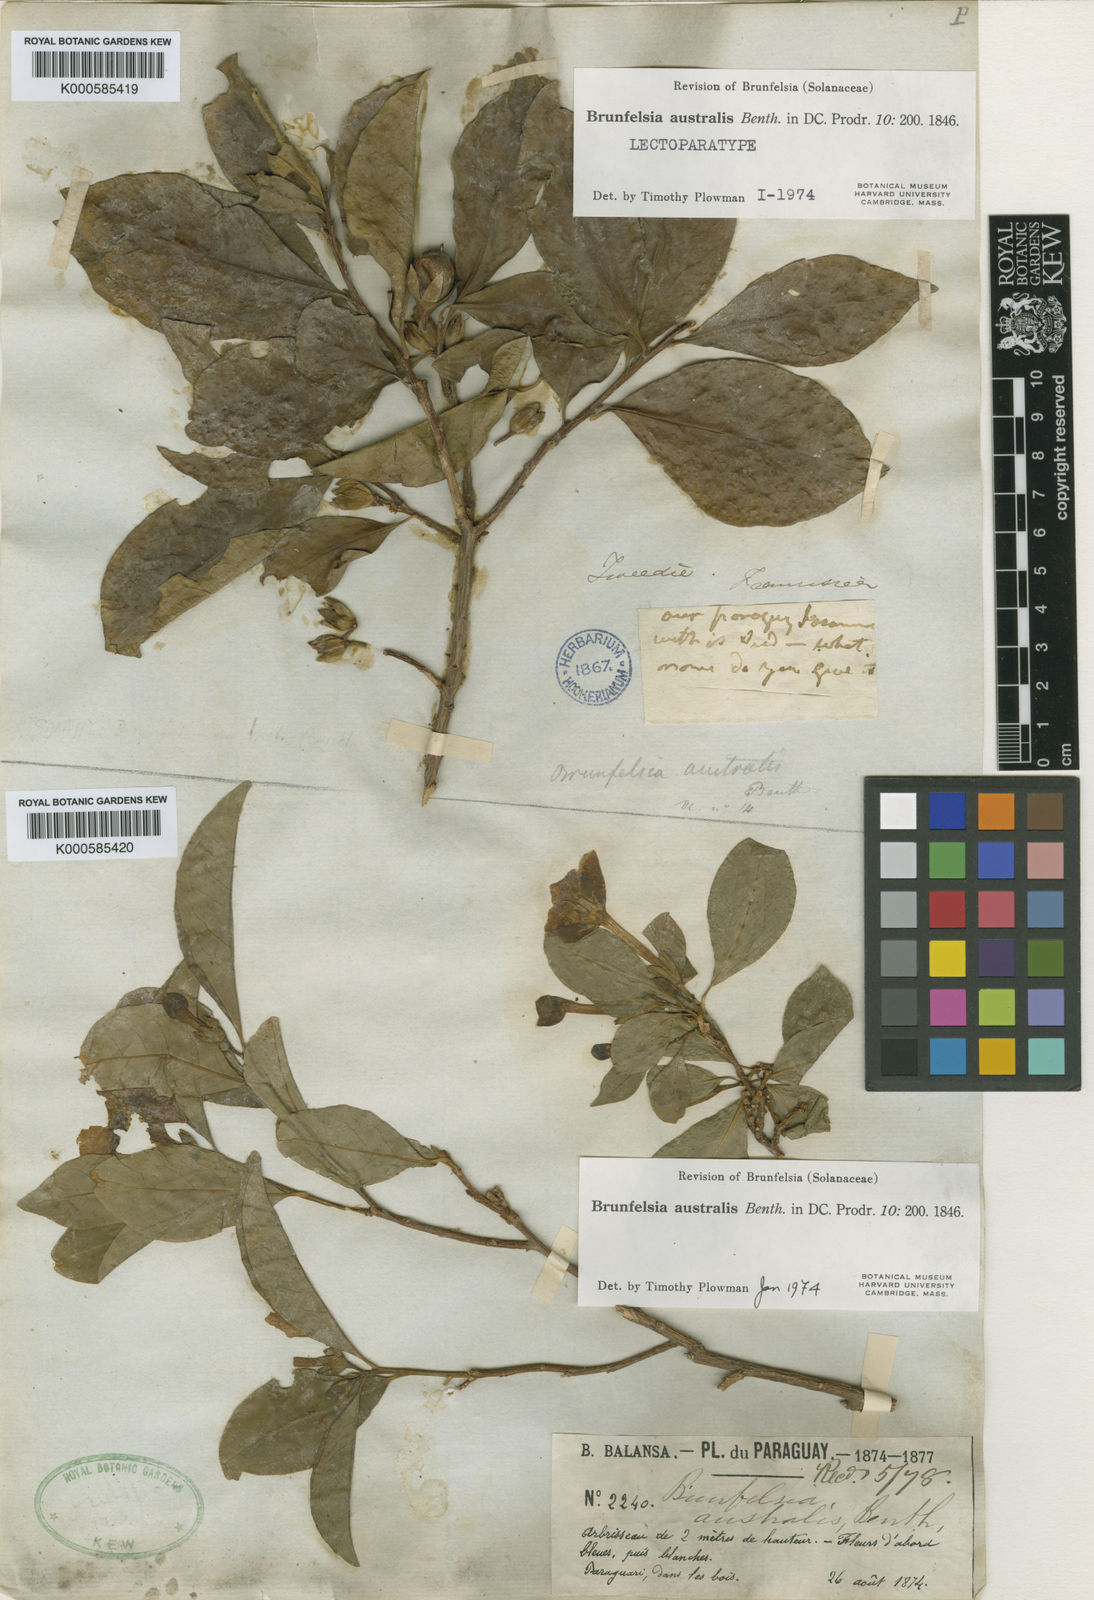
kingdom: Plantae
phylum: Tracheophyta
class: Magnoliopsida
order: Solanales
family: Solanaceae
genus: Brunfelsia
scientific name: Brunfelsia australis
